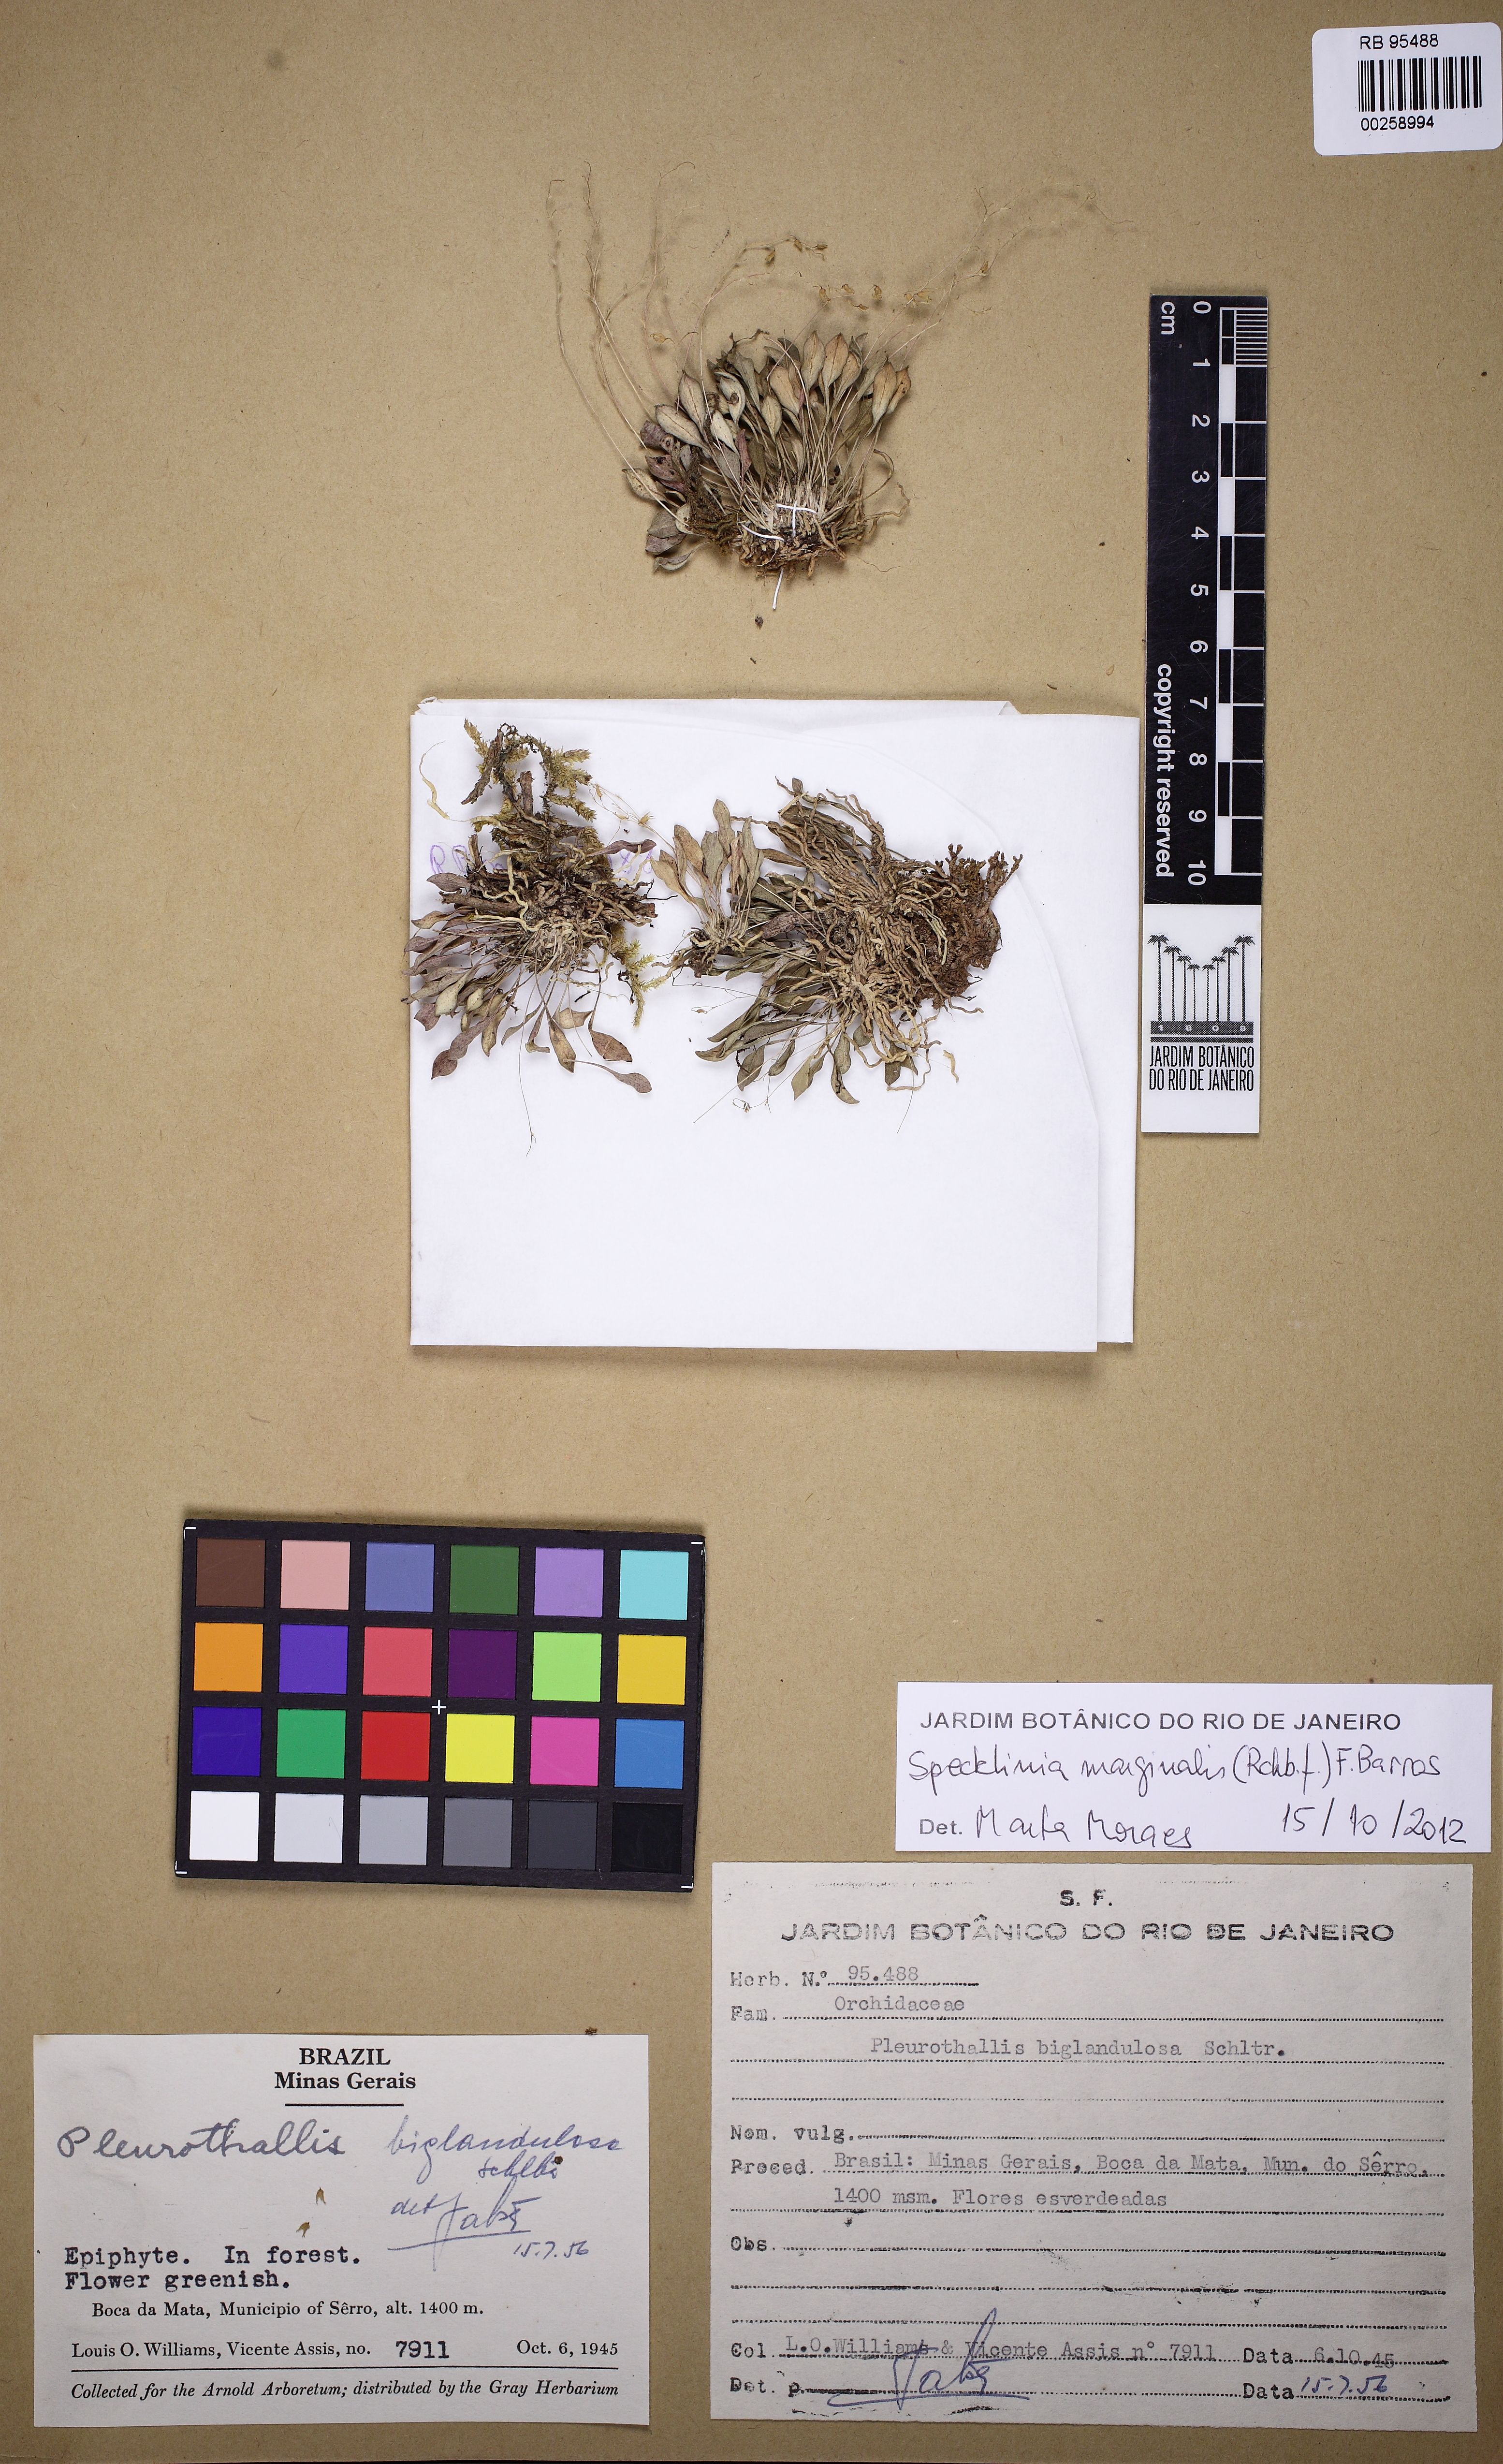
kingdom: Plantae
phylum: Tracheophyta
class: Liliopsida
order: Asparagales
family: Orchidaceae
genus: Specklinia
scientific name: Specklinia marginalis
